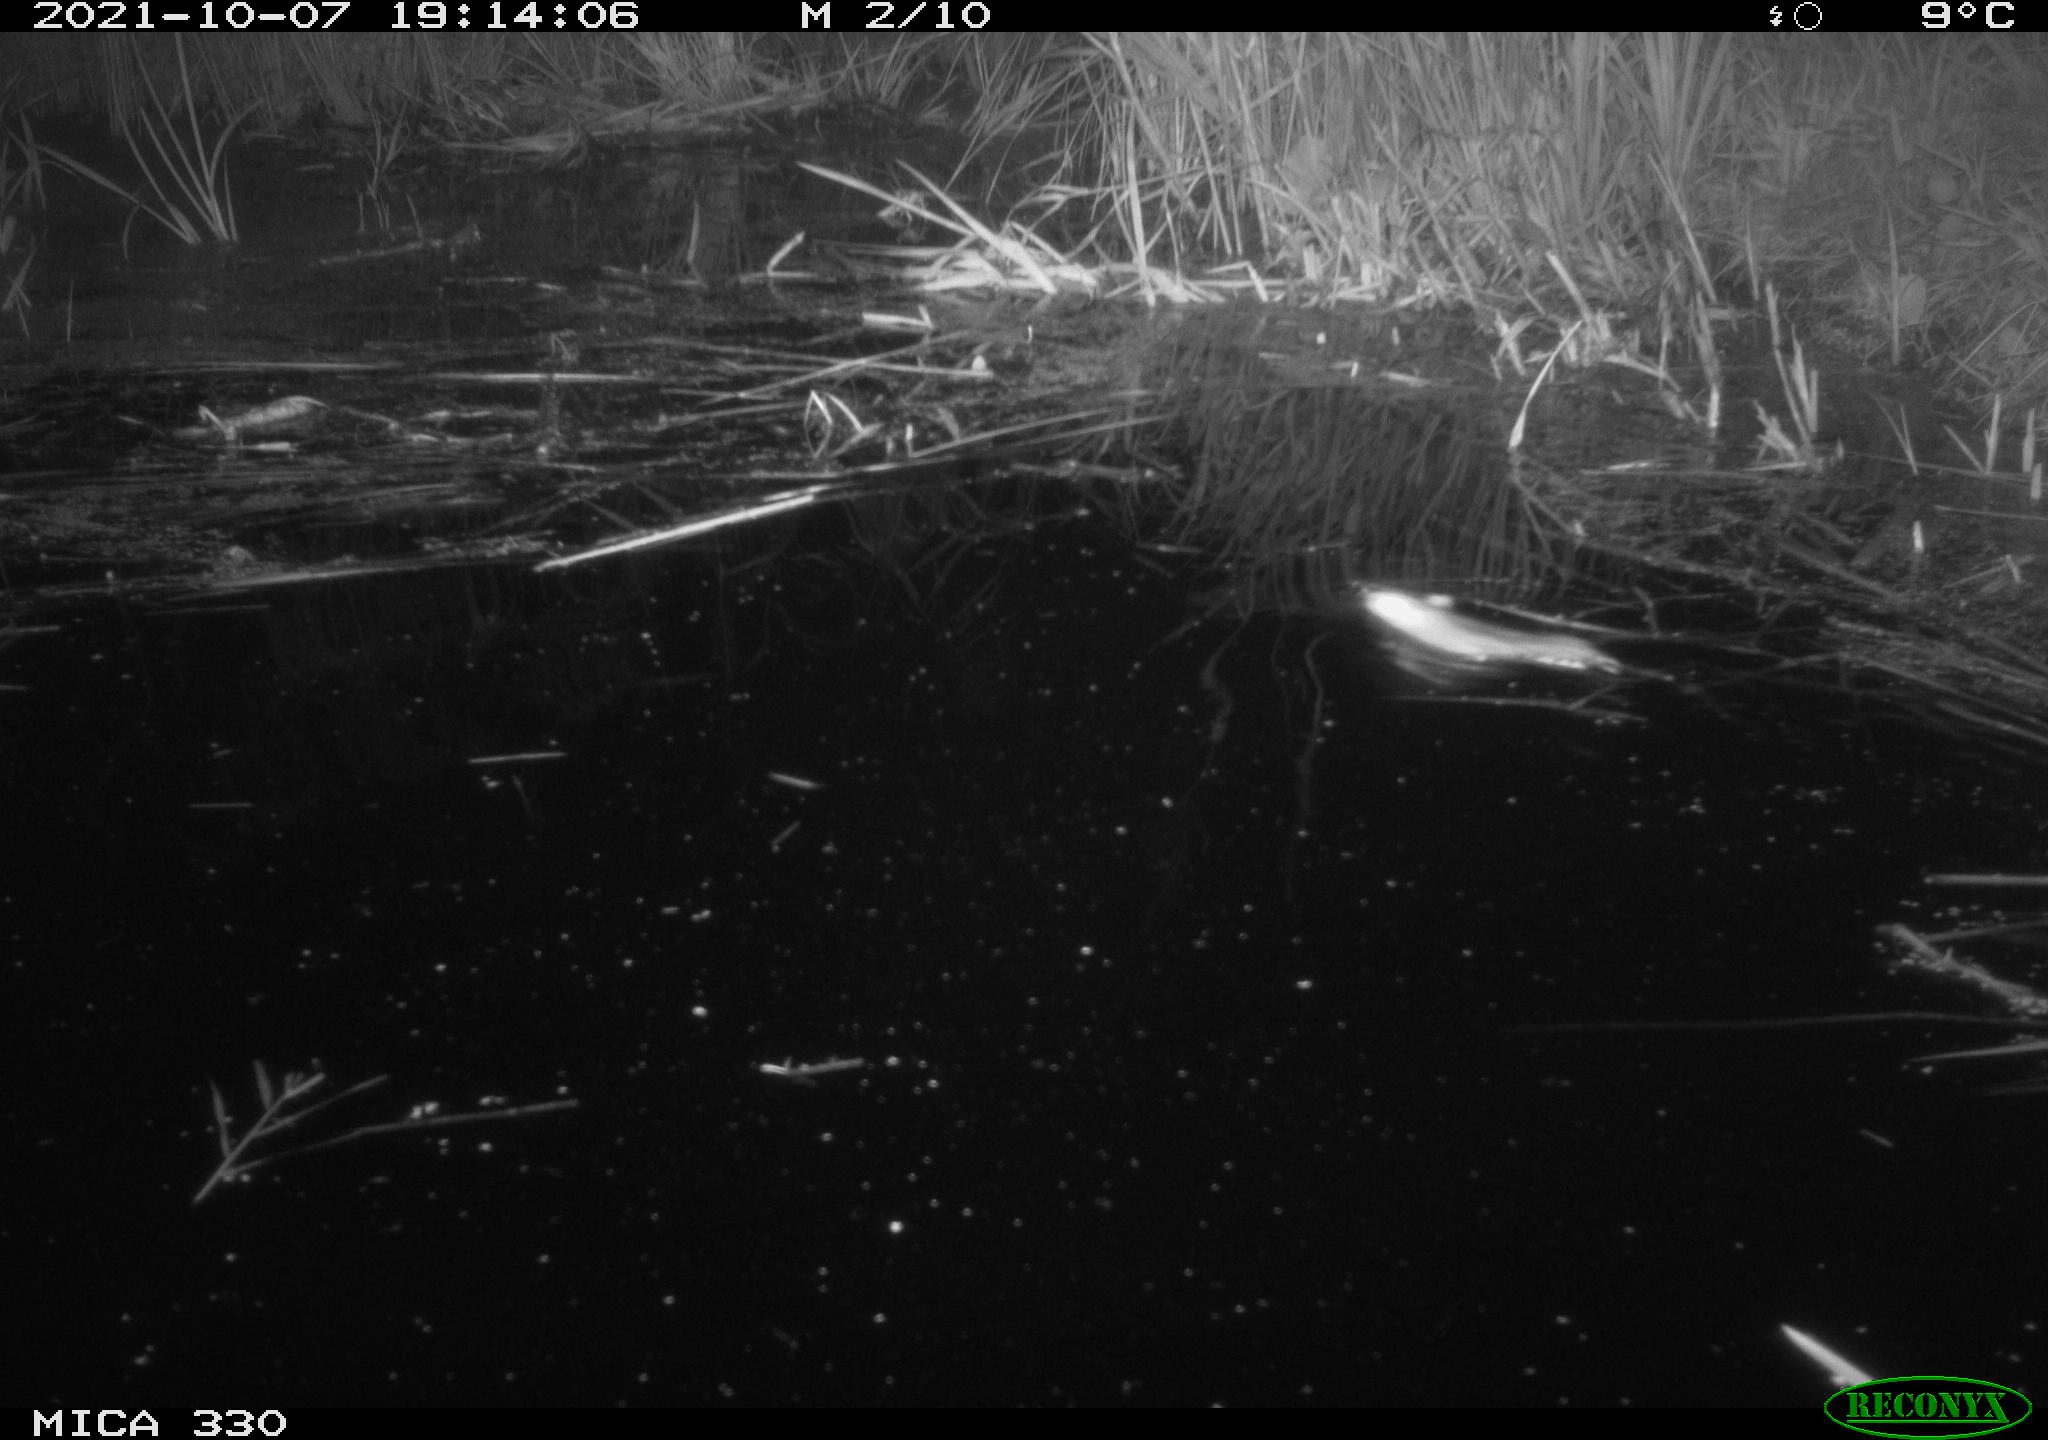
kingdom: Animalia
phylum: Chordata
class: Mammalia
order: Rodentia
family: Muridae
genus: Rattus
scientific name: Rattus norvegicus
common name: Brown rat
